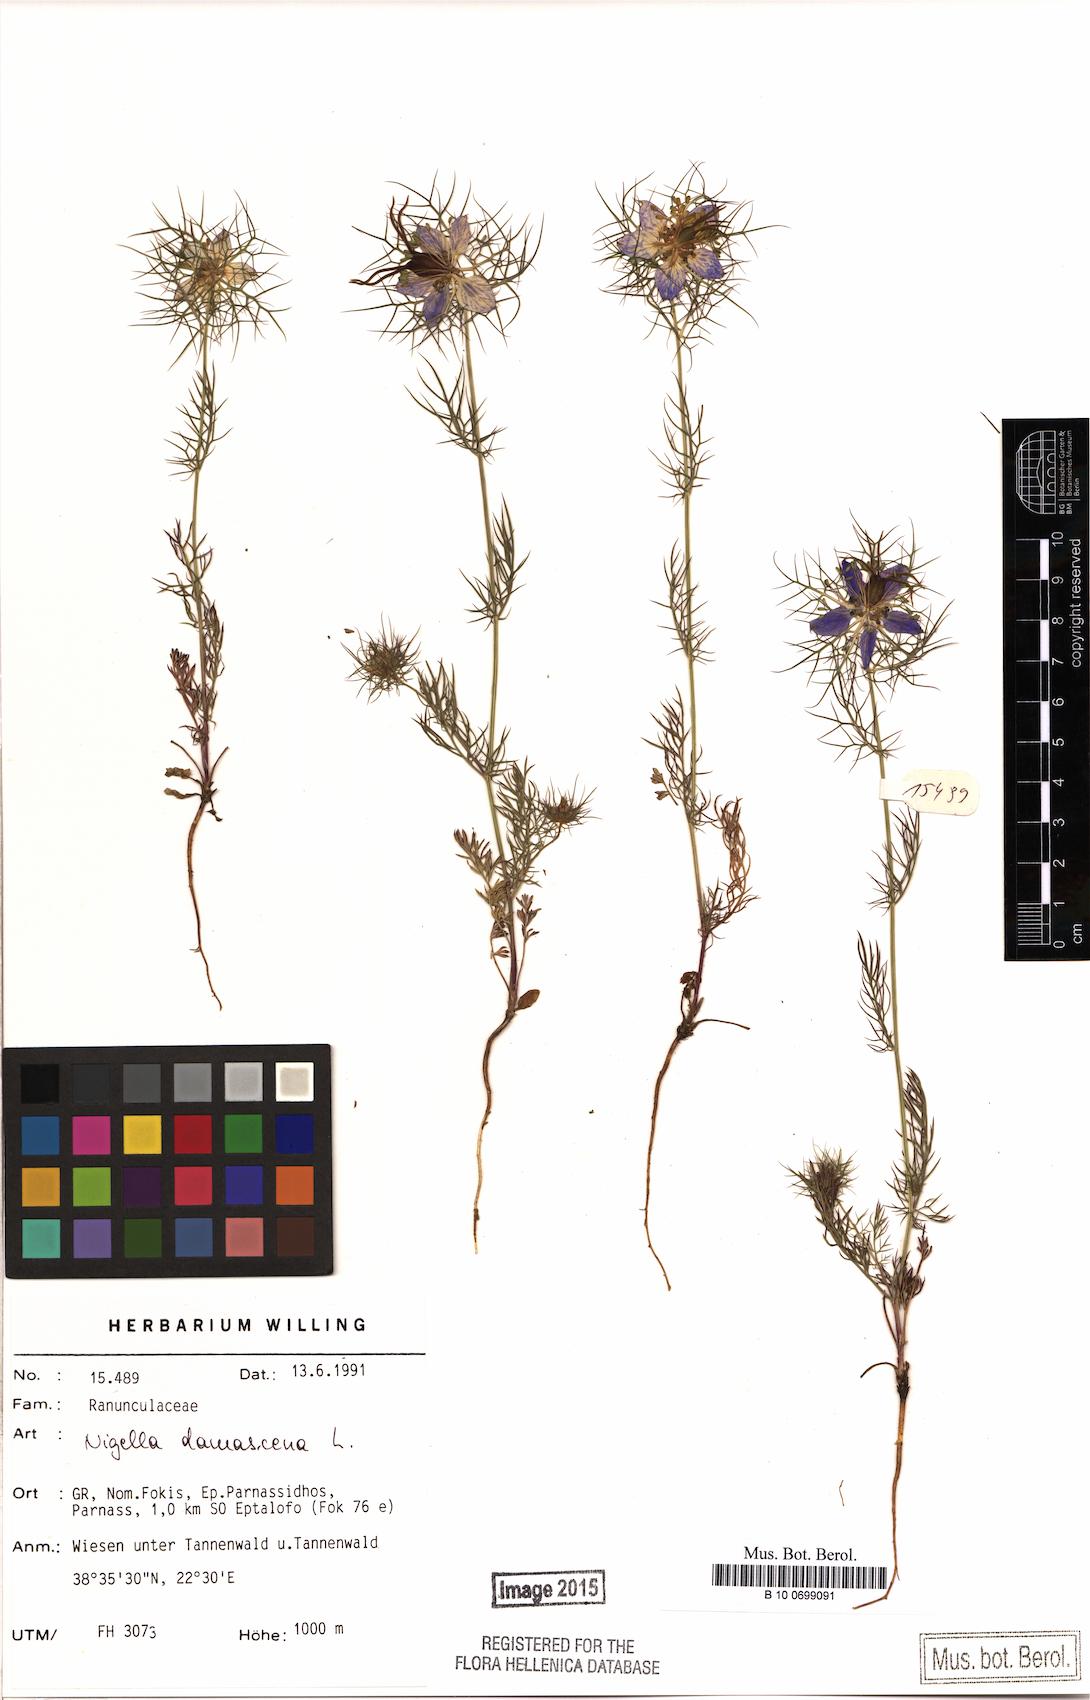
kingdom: Plantae
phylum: Tracheophyta
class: Magnoliopsida
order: Ranunculales
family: Ranunculaceae
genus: Nigella
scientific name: Nigella damascena
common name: Love-in-a-mist
